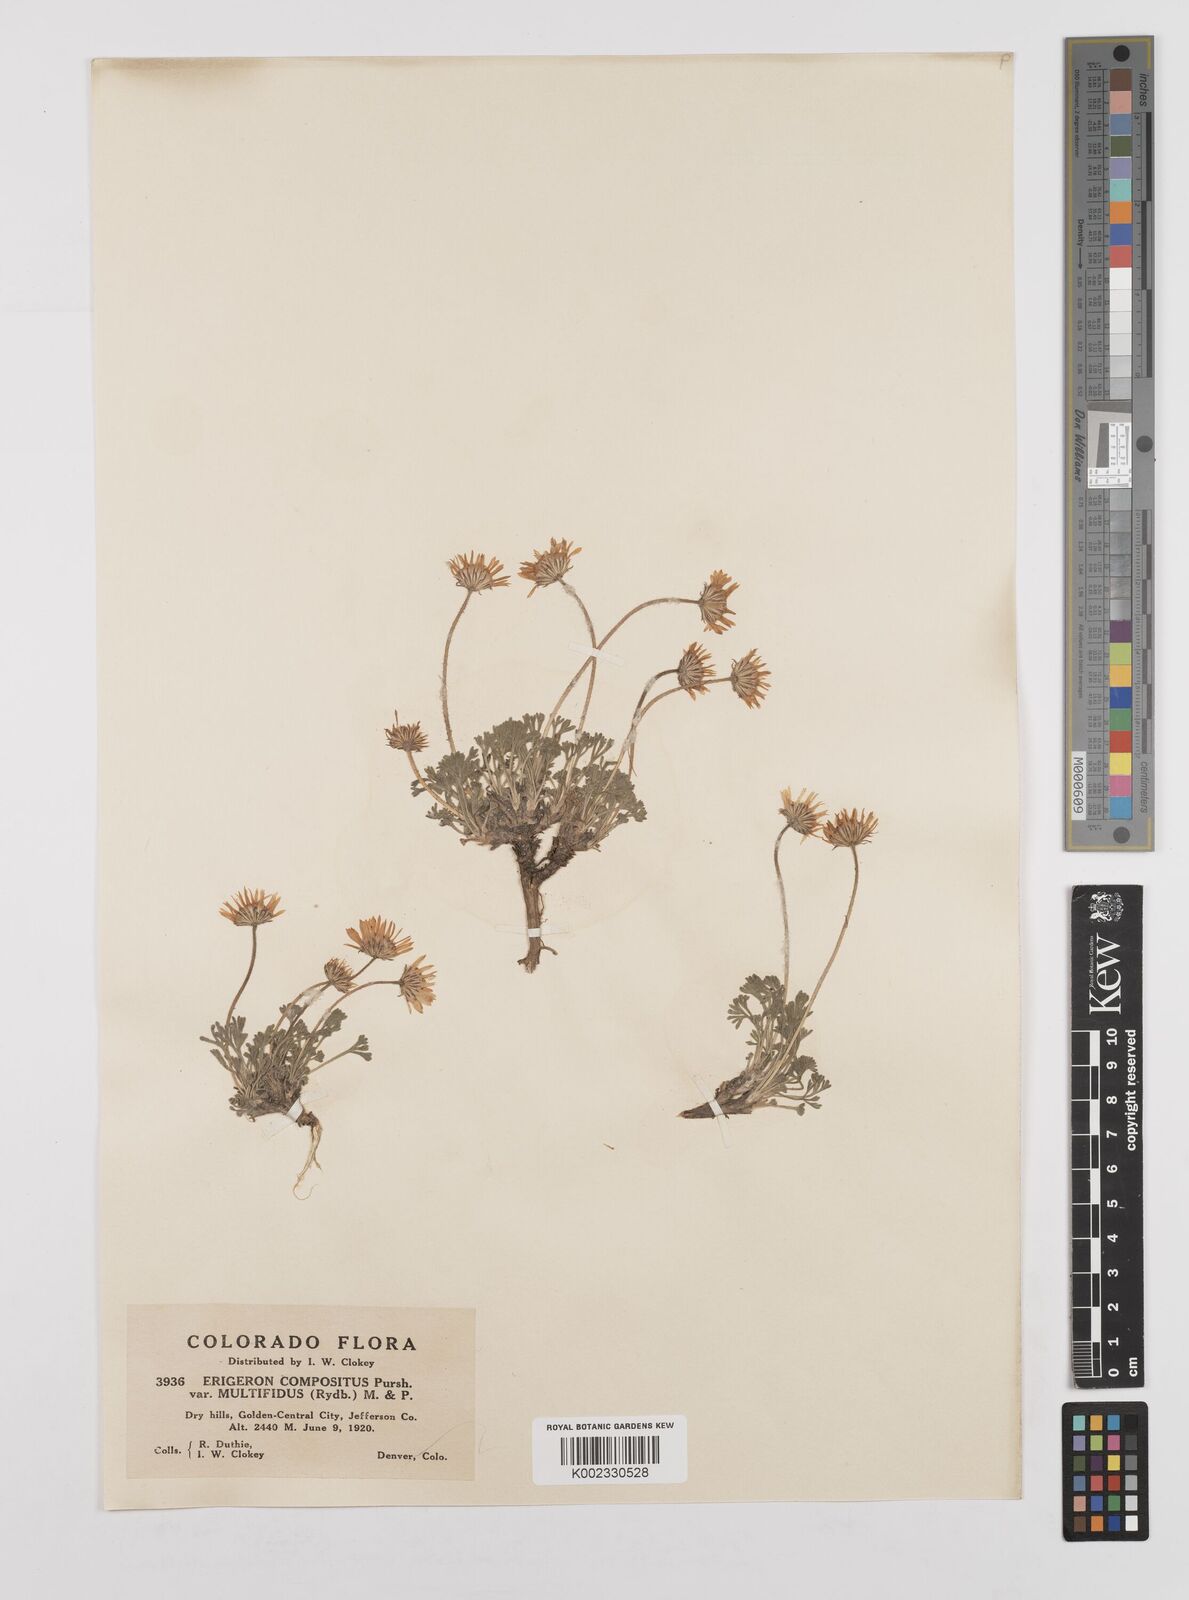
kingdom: Plantae
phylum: Tracheophyta
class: Magnoliopsida
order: Asterales
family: Asteraceae
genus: Erigeron
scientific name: Erigeron compositus
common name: Dwarf mountain fleabane
